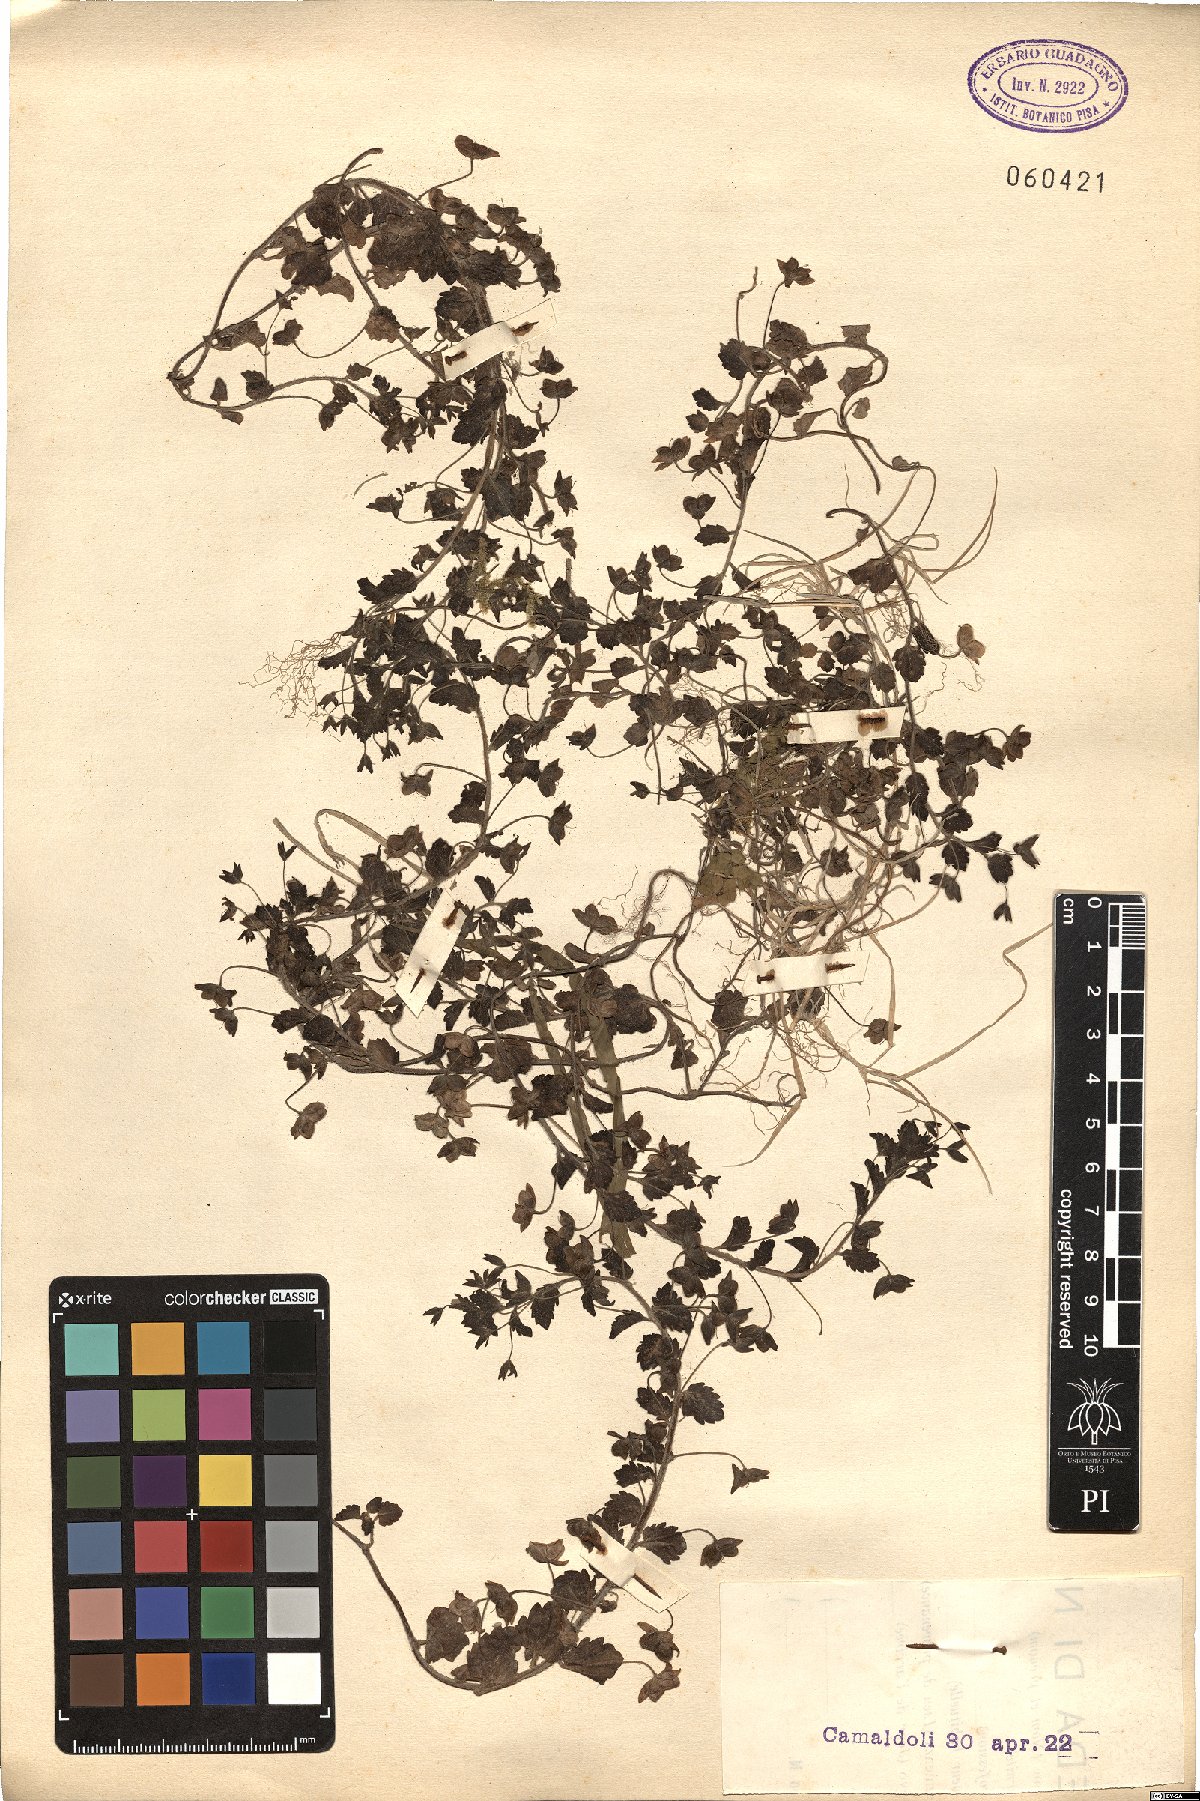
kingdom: Plantae
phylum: Tracheophyta
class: Magnoliopsida
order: Lamiales
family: Plantaginaceae
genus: Veronica
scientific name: Veronica persica
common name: Common field-speedwell
